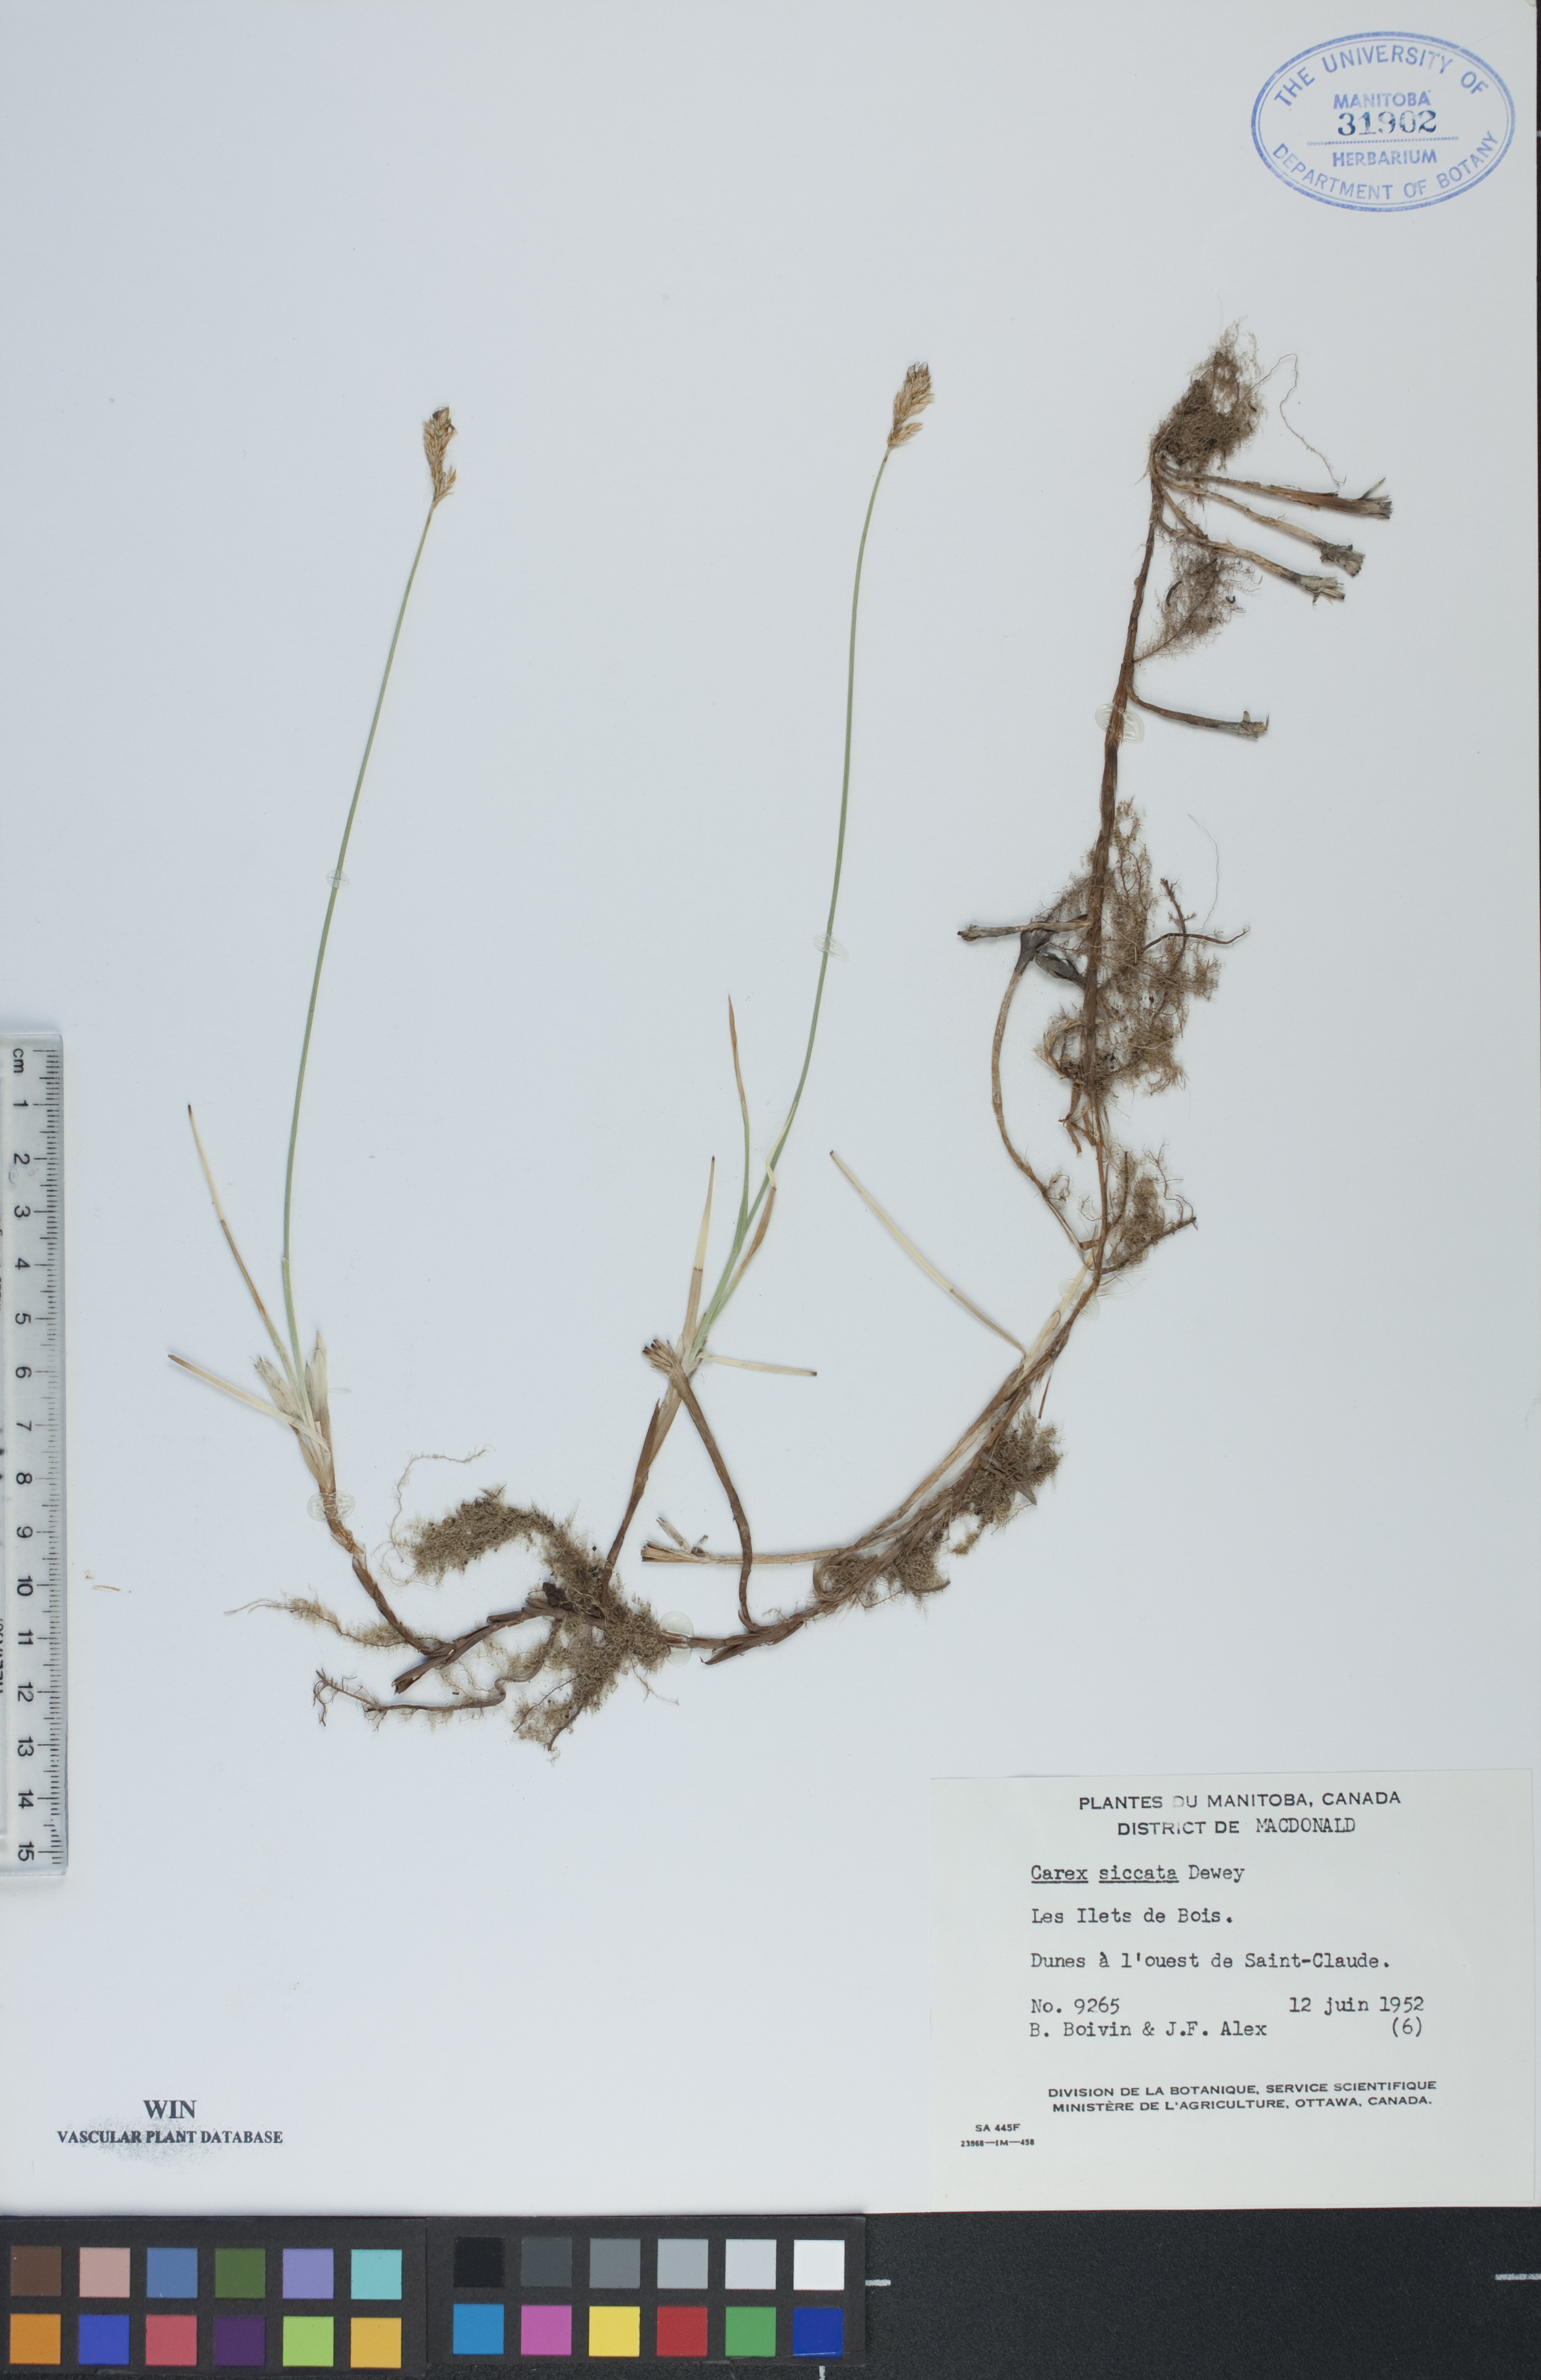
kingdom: Plantae
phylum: Tracheophyta
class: Liliopsida
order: Poales
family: Cyperaceae
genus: Carex
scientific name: Carex siccata
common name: Dry sedge
